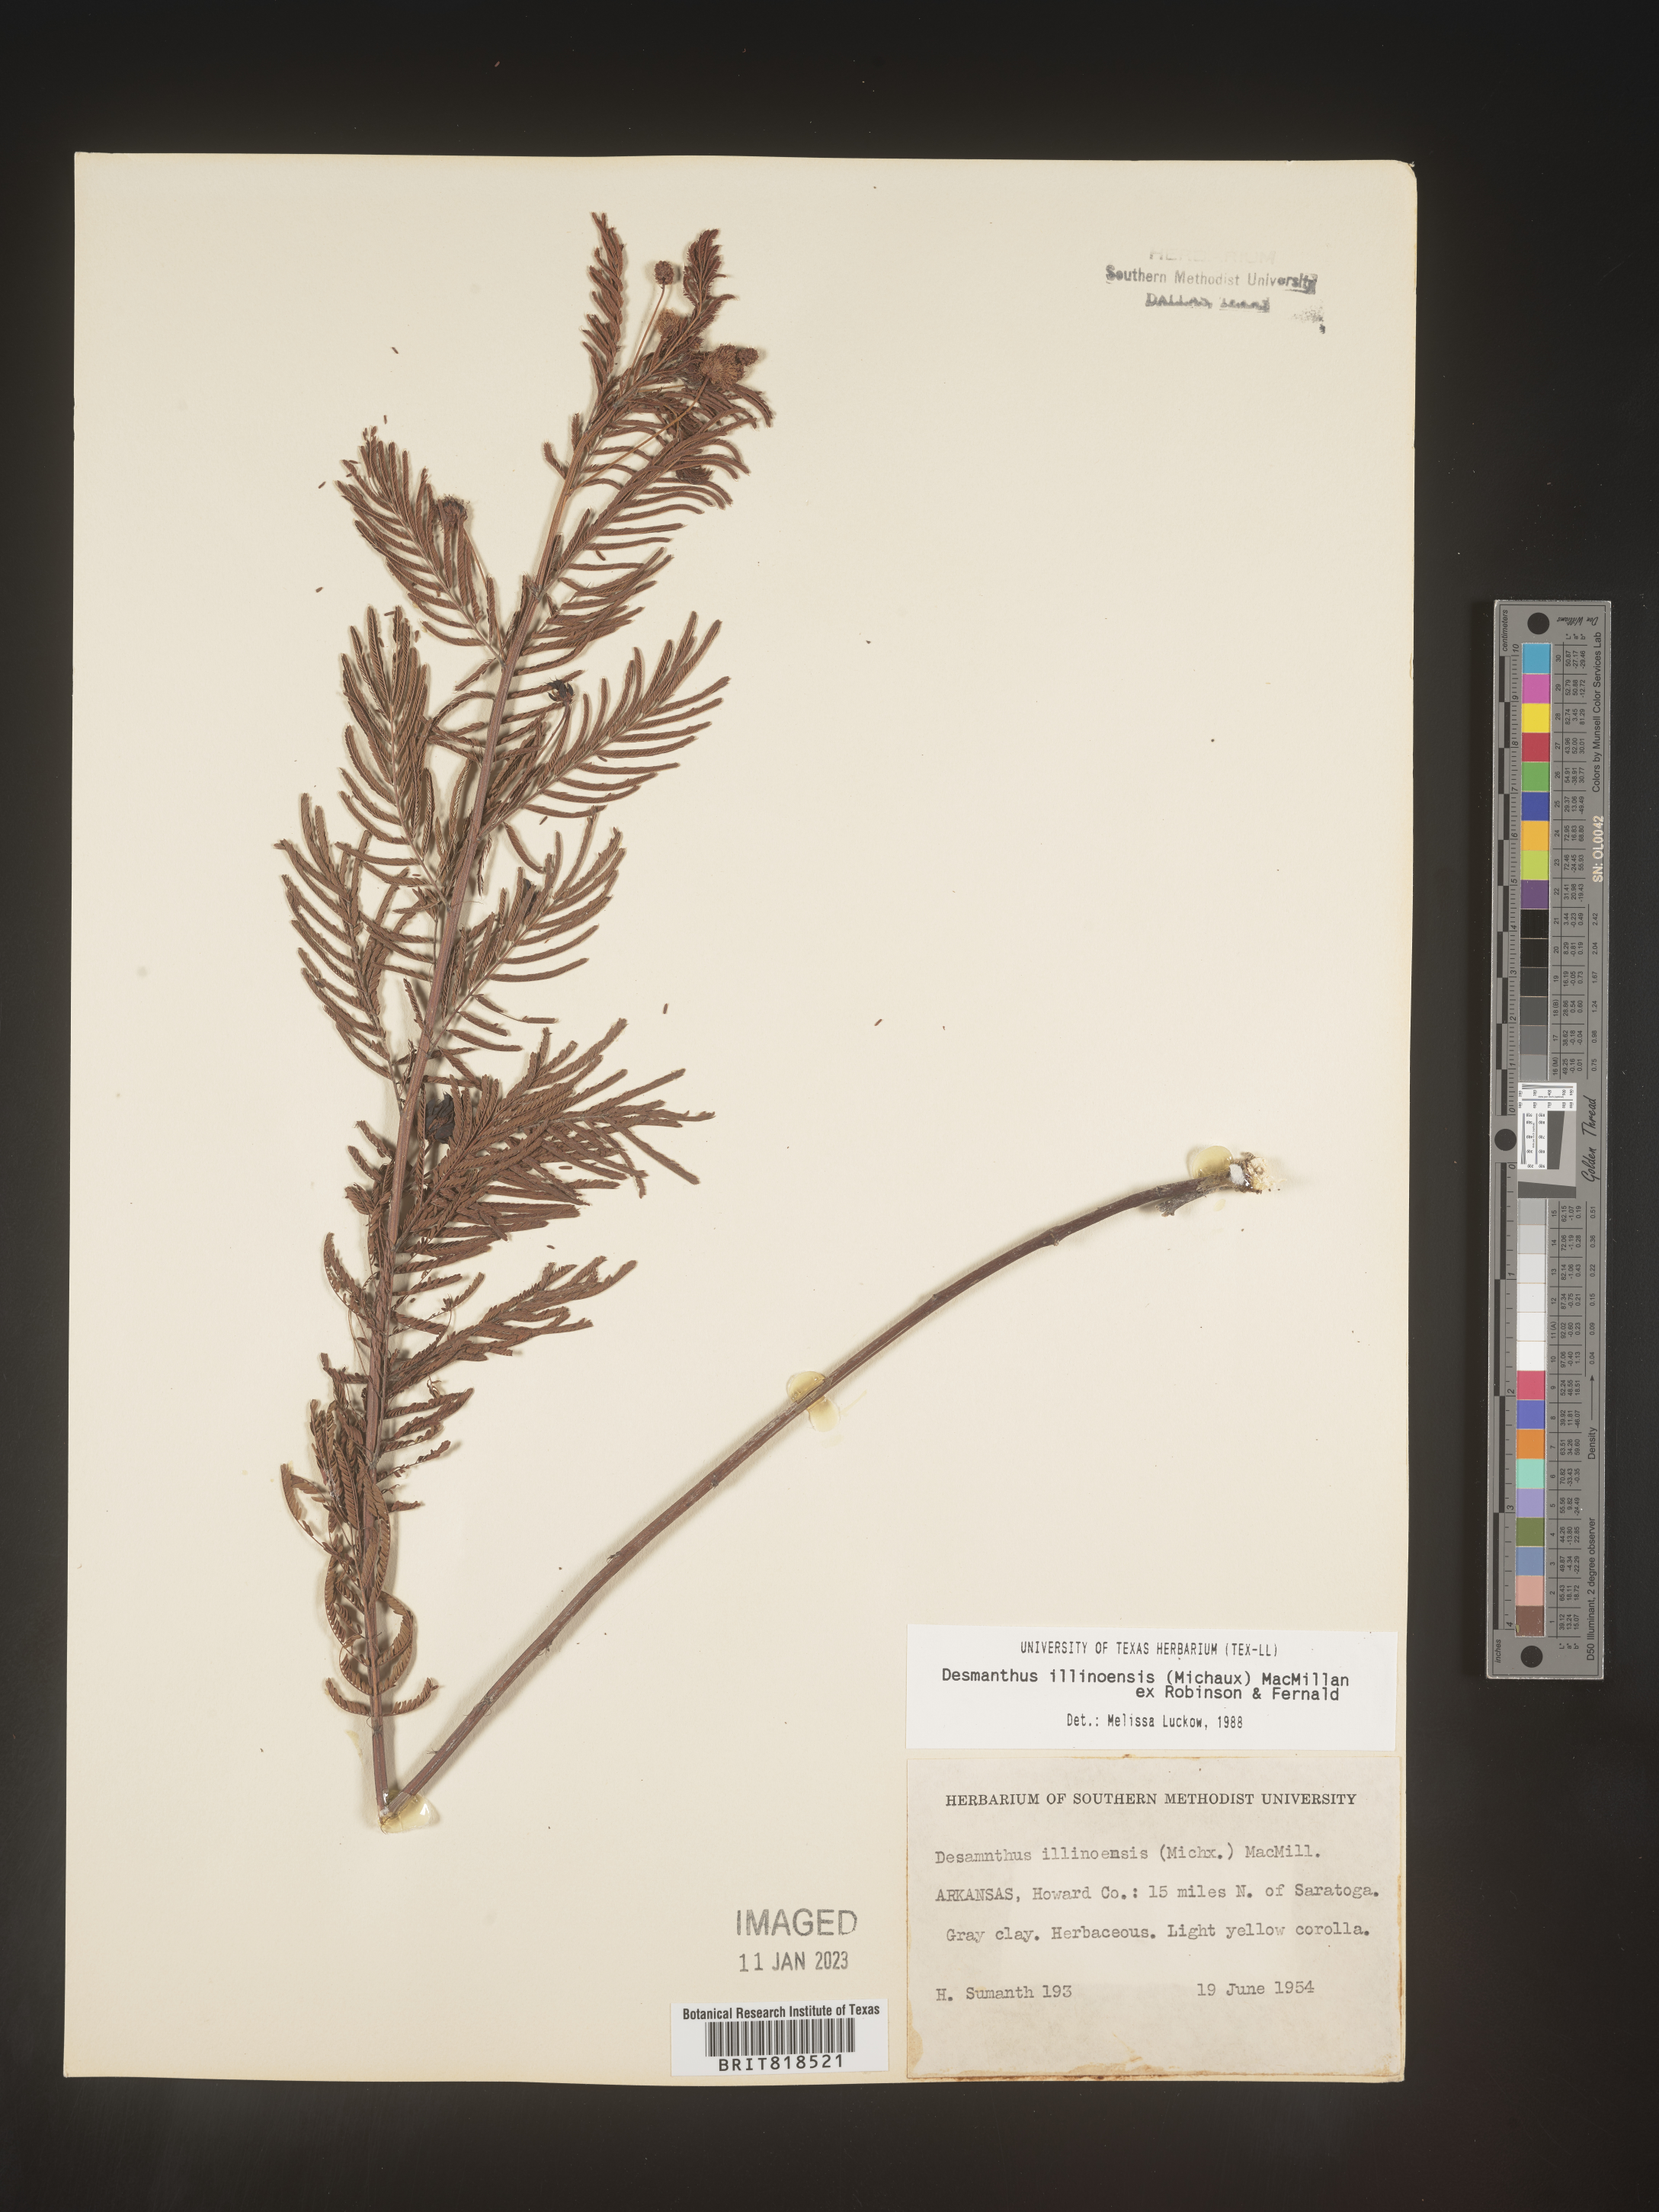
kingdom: Plantae
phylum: Tracheophyta
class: Magnoliopsida
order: Fabales
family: Fabaceae
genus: Desmanthus
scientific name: Desmanthus illinoensis
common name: Illinois bundle-flower
